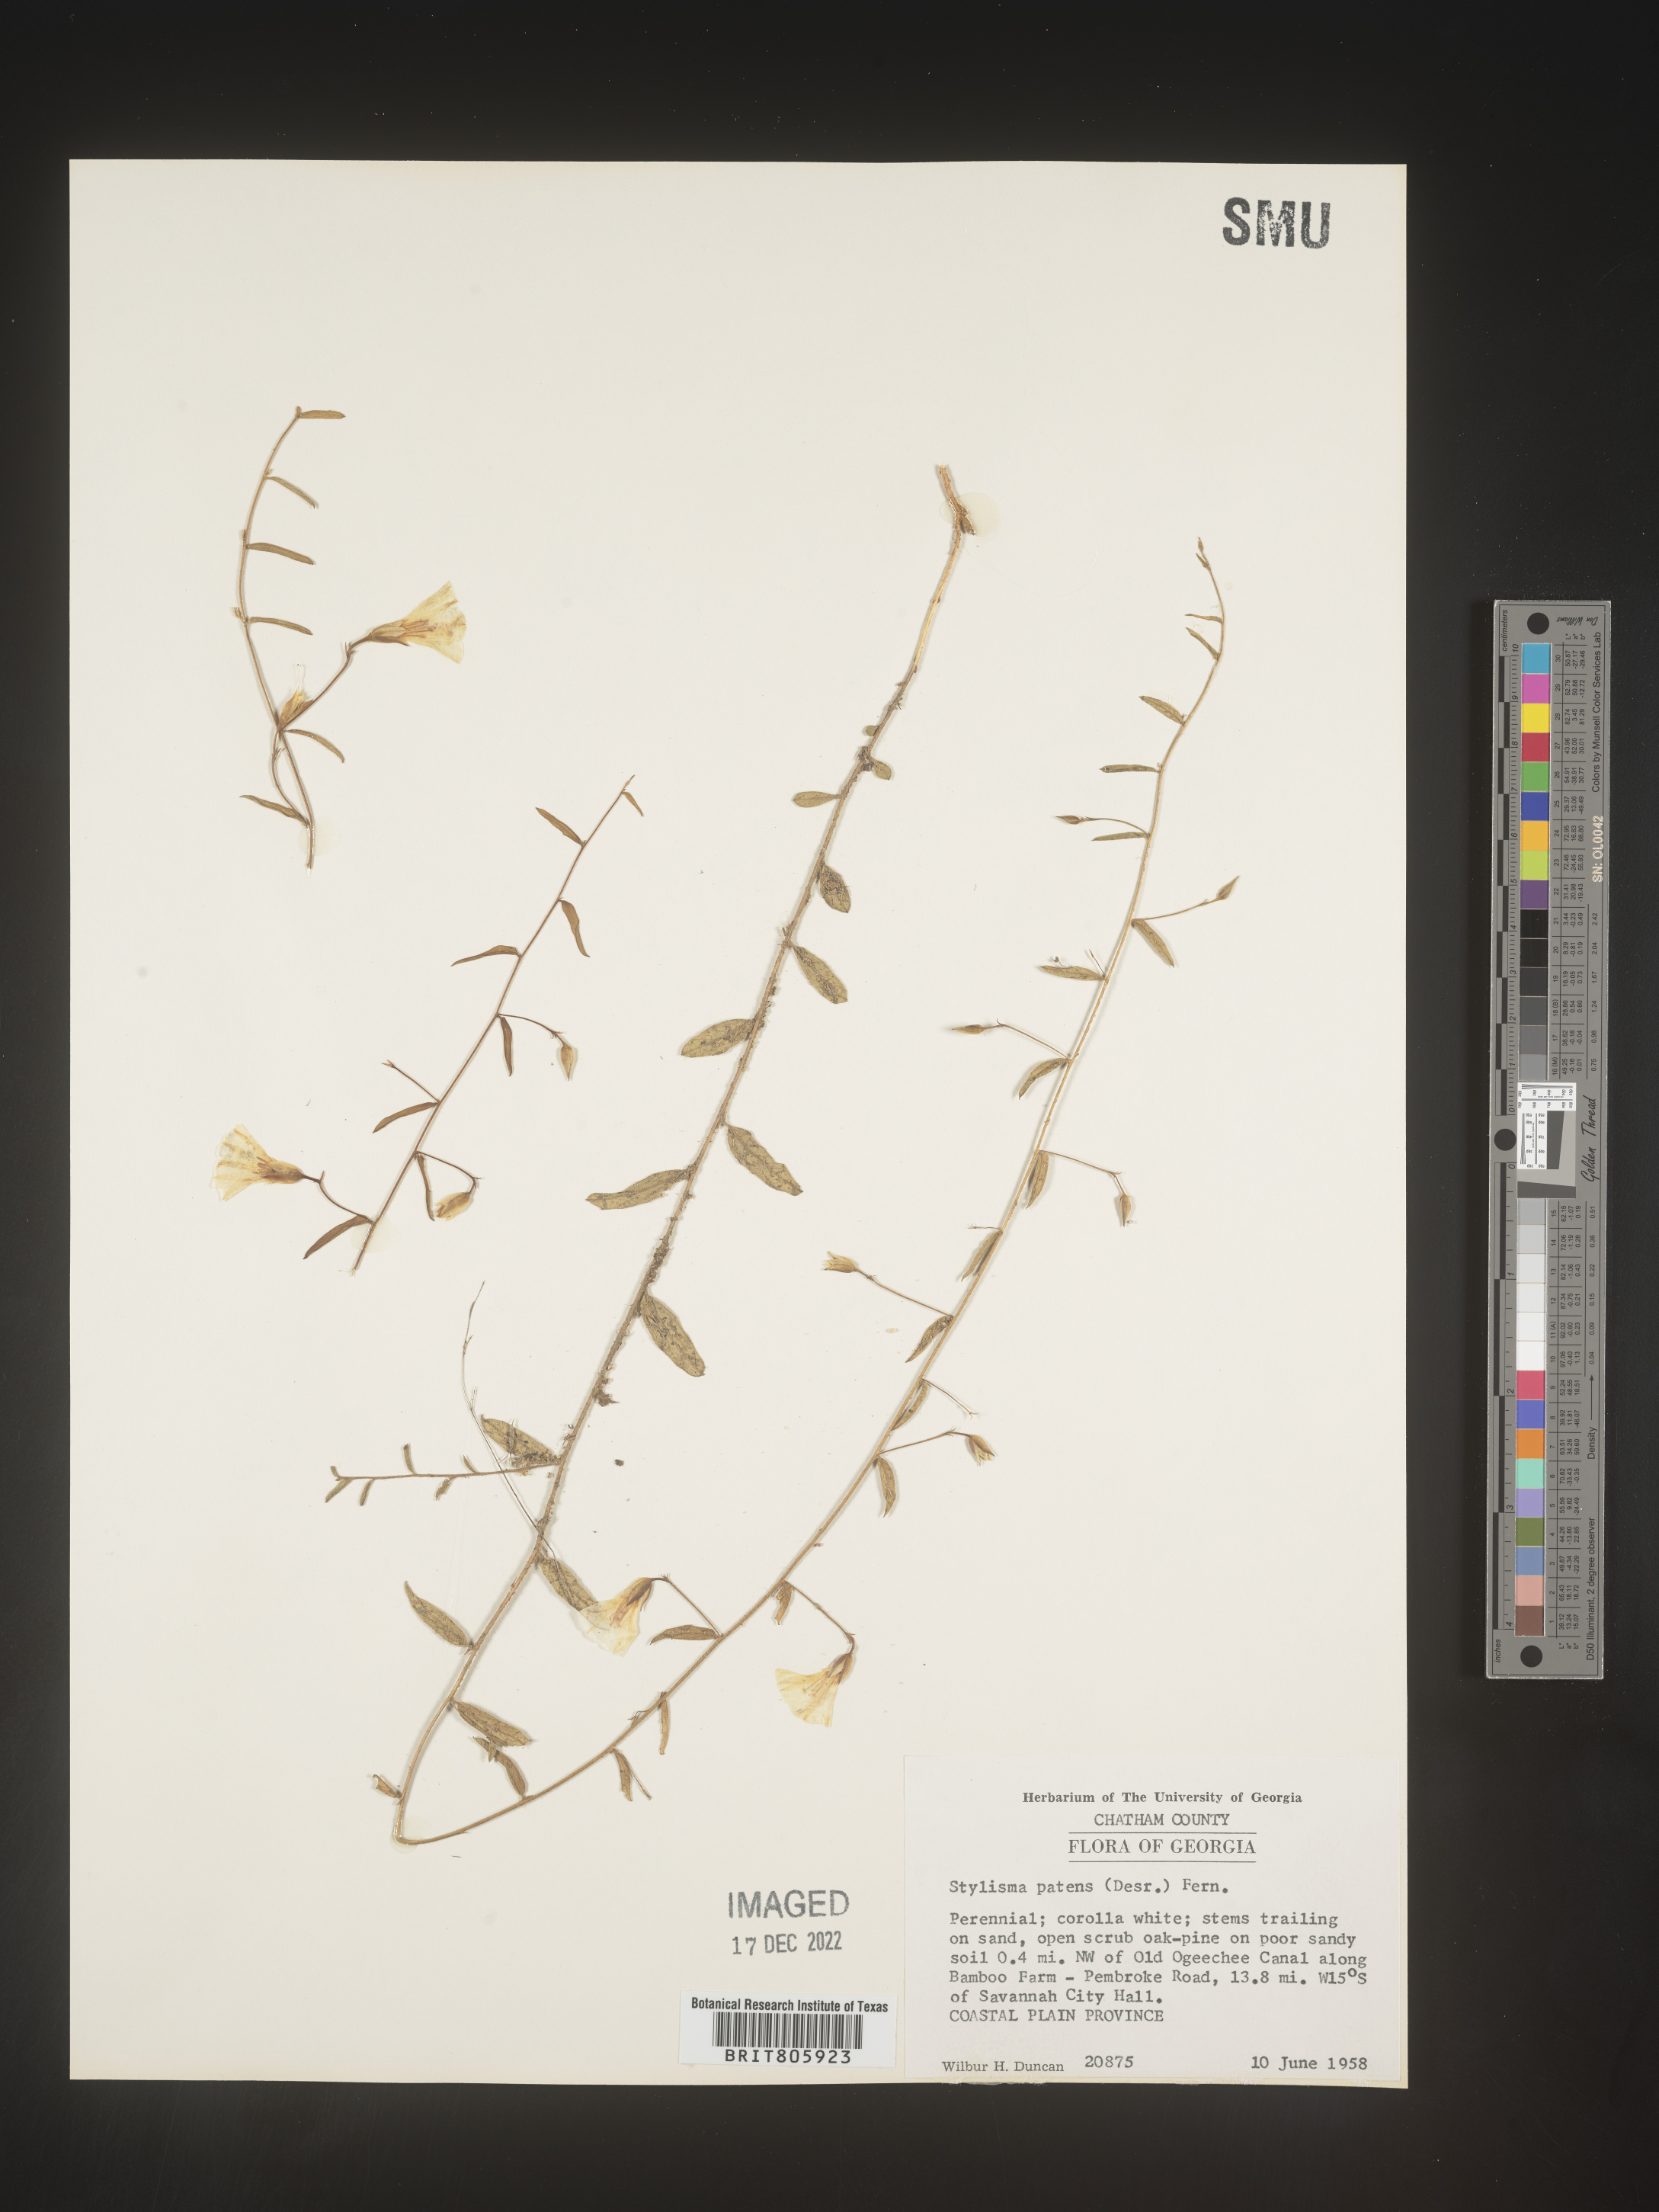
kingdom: Plantae
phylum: Tracheophyta
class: Magnoliopsida
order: Solanales
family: Convolvulaceae
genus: Stylisma
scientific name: Stylisma
